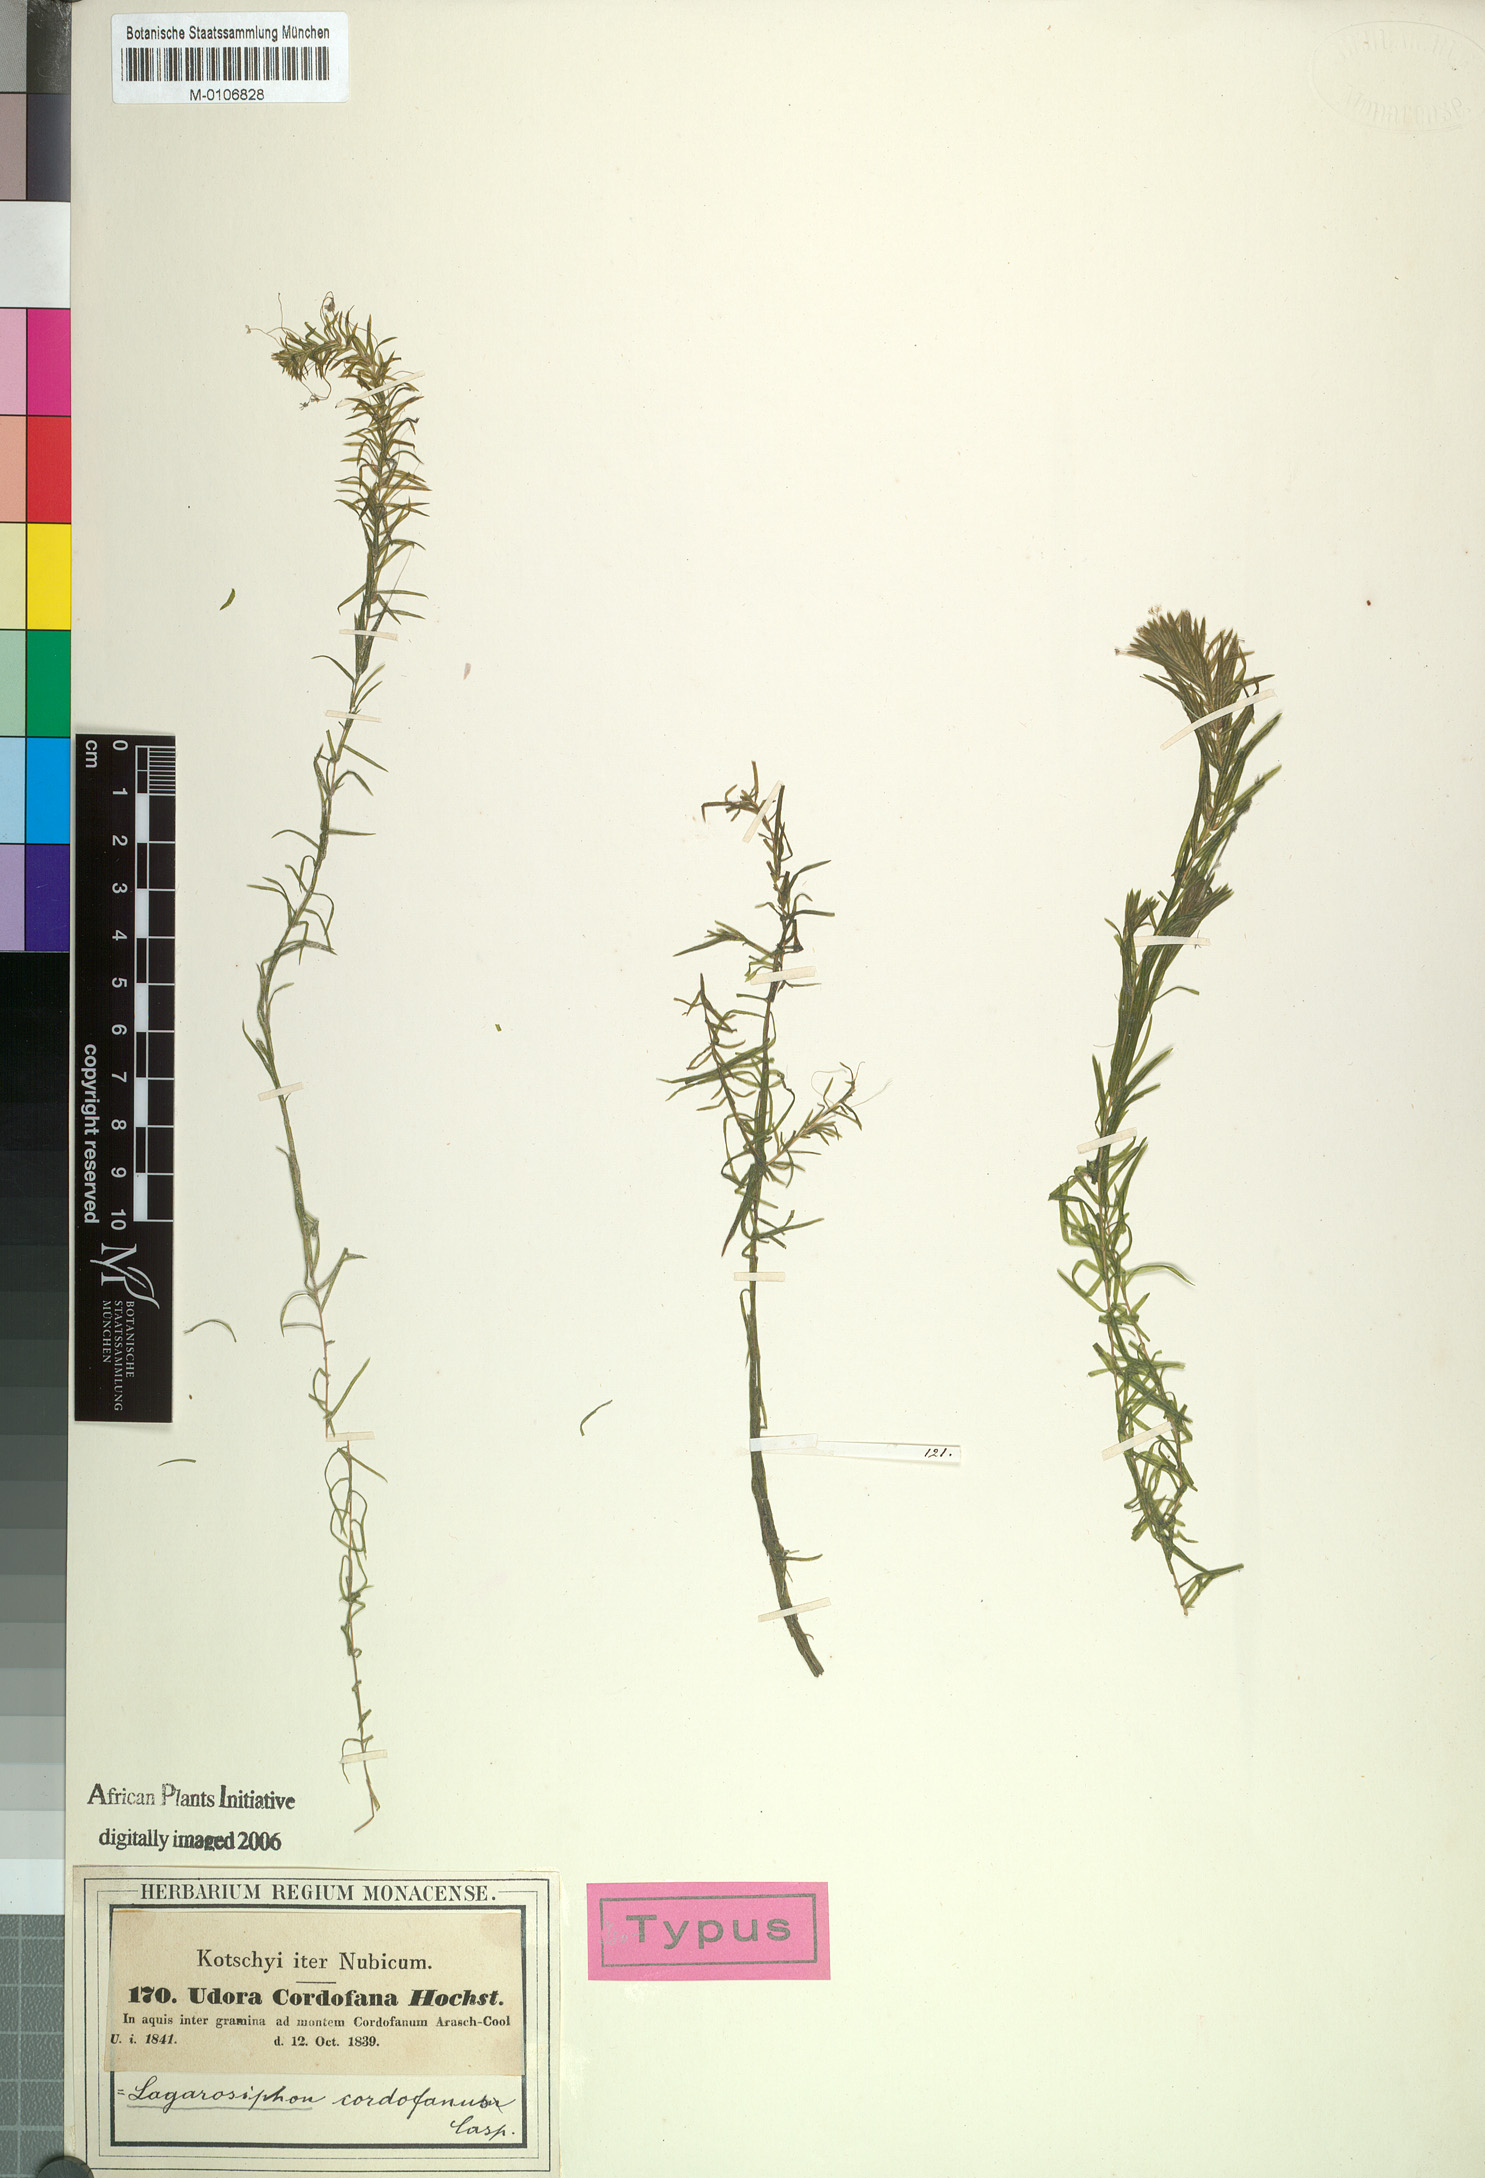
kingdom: Plantae
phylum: Tracheophyta
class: Liliopsida
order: Alismatales
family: Hydrocharitaceae
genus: Lagarosiphon
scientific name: Lagarosiphon cordofanus
